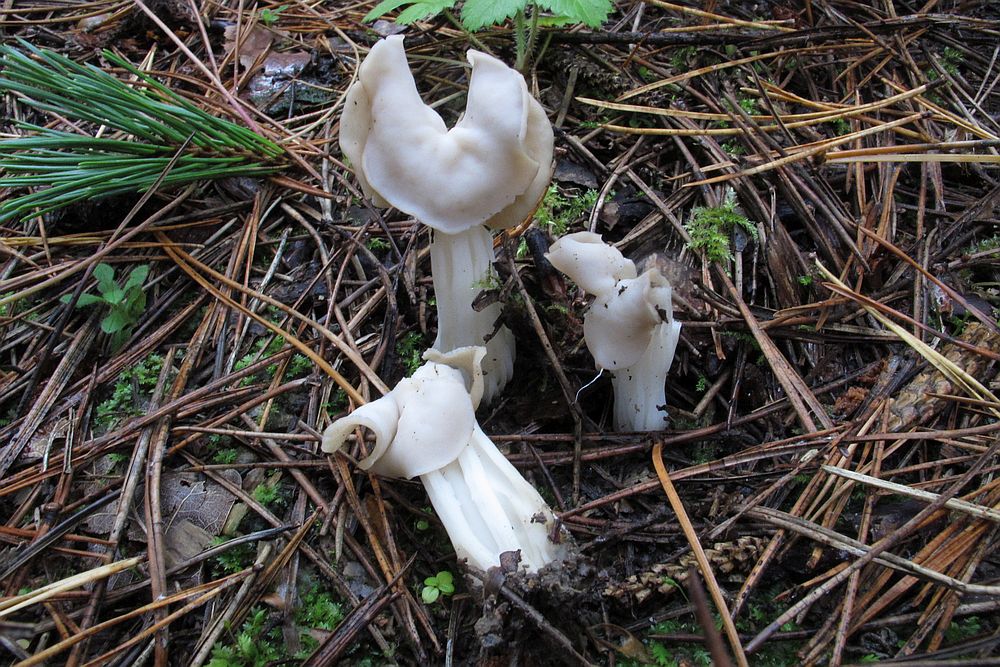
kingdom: Fungi
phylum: Ascomycota
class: Pezizomycetes
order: Pezizales
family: Helvellaceae
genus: Helvella
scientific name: Helvella crispa
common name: kruset foldhat
